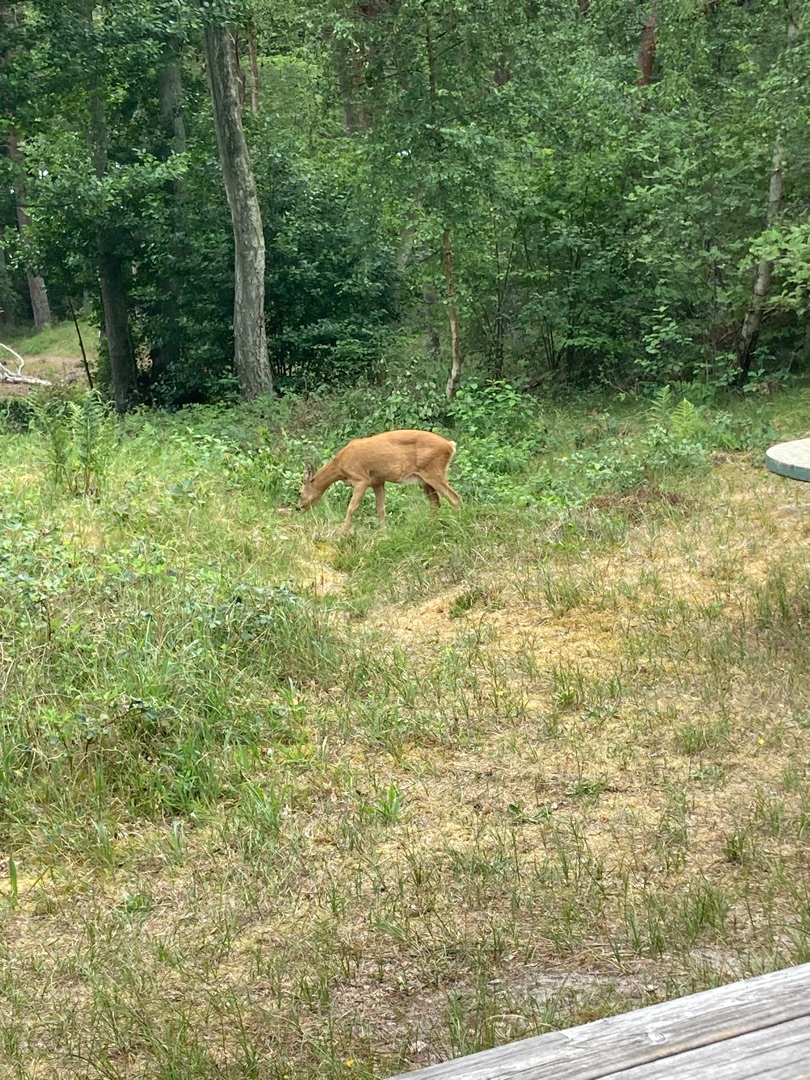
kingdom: Animalia
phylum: Chordata
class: Mammalia
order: Artiodactyla
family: Cervidae
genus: Capreolus
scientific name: Capreolus capreolus
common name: Rådyr
